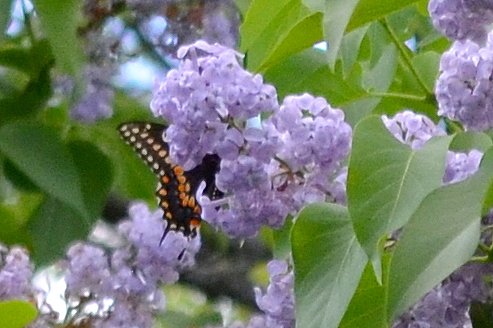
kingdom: Animalia
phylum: Arthropoda
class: Insecta
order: Lepidoptera
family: Papilionidae
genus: Papilio
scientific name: Papilio polyxenes
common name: Black Swallowtail
